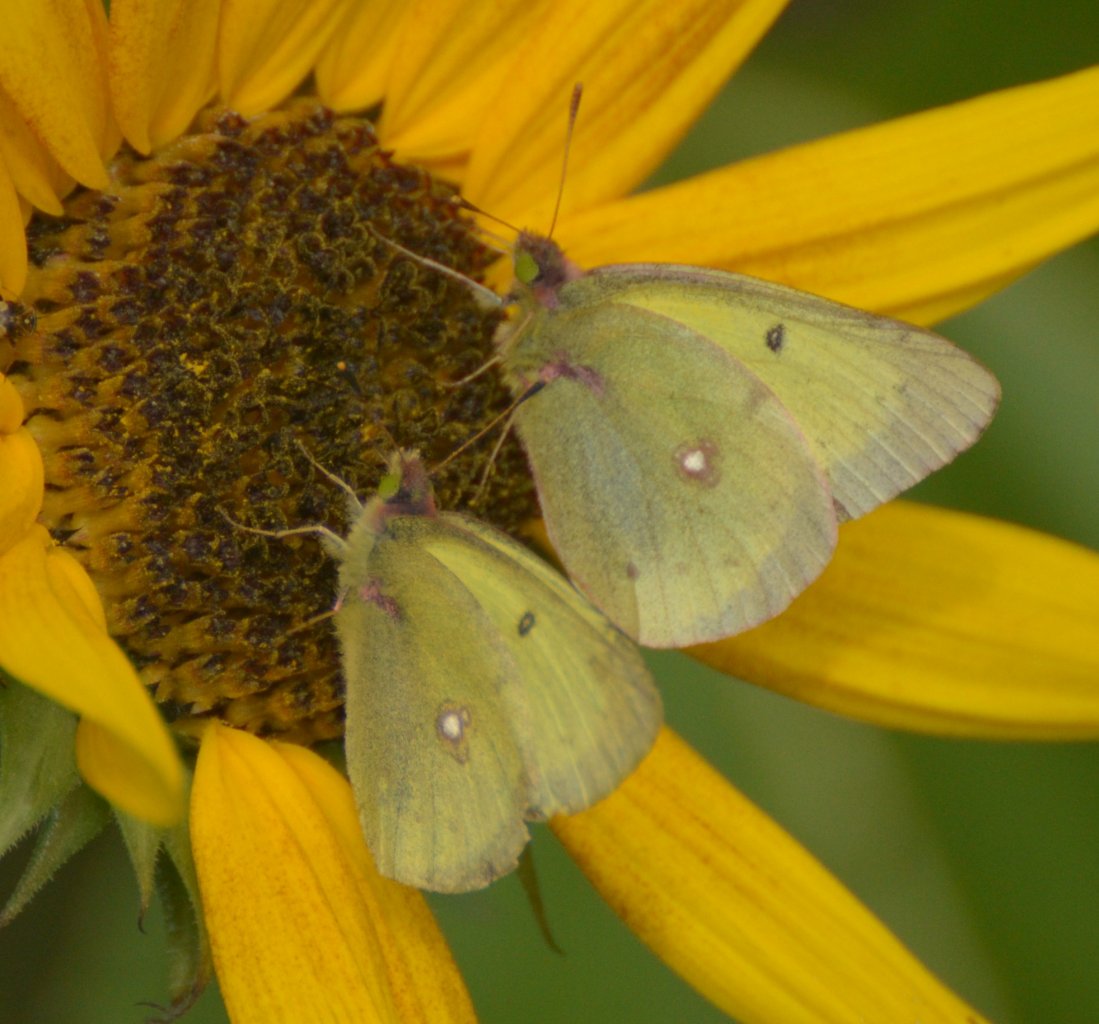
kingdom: Animalia
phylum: Arthropoda
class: Insecta
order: Lepidoptera
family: Pieridae
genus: Colias
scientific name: Colias philodice
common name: Clouded Sulphur
